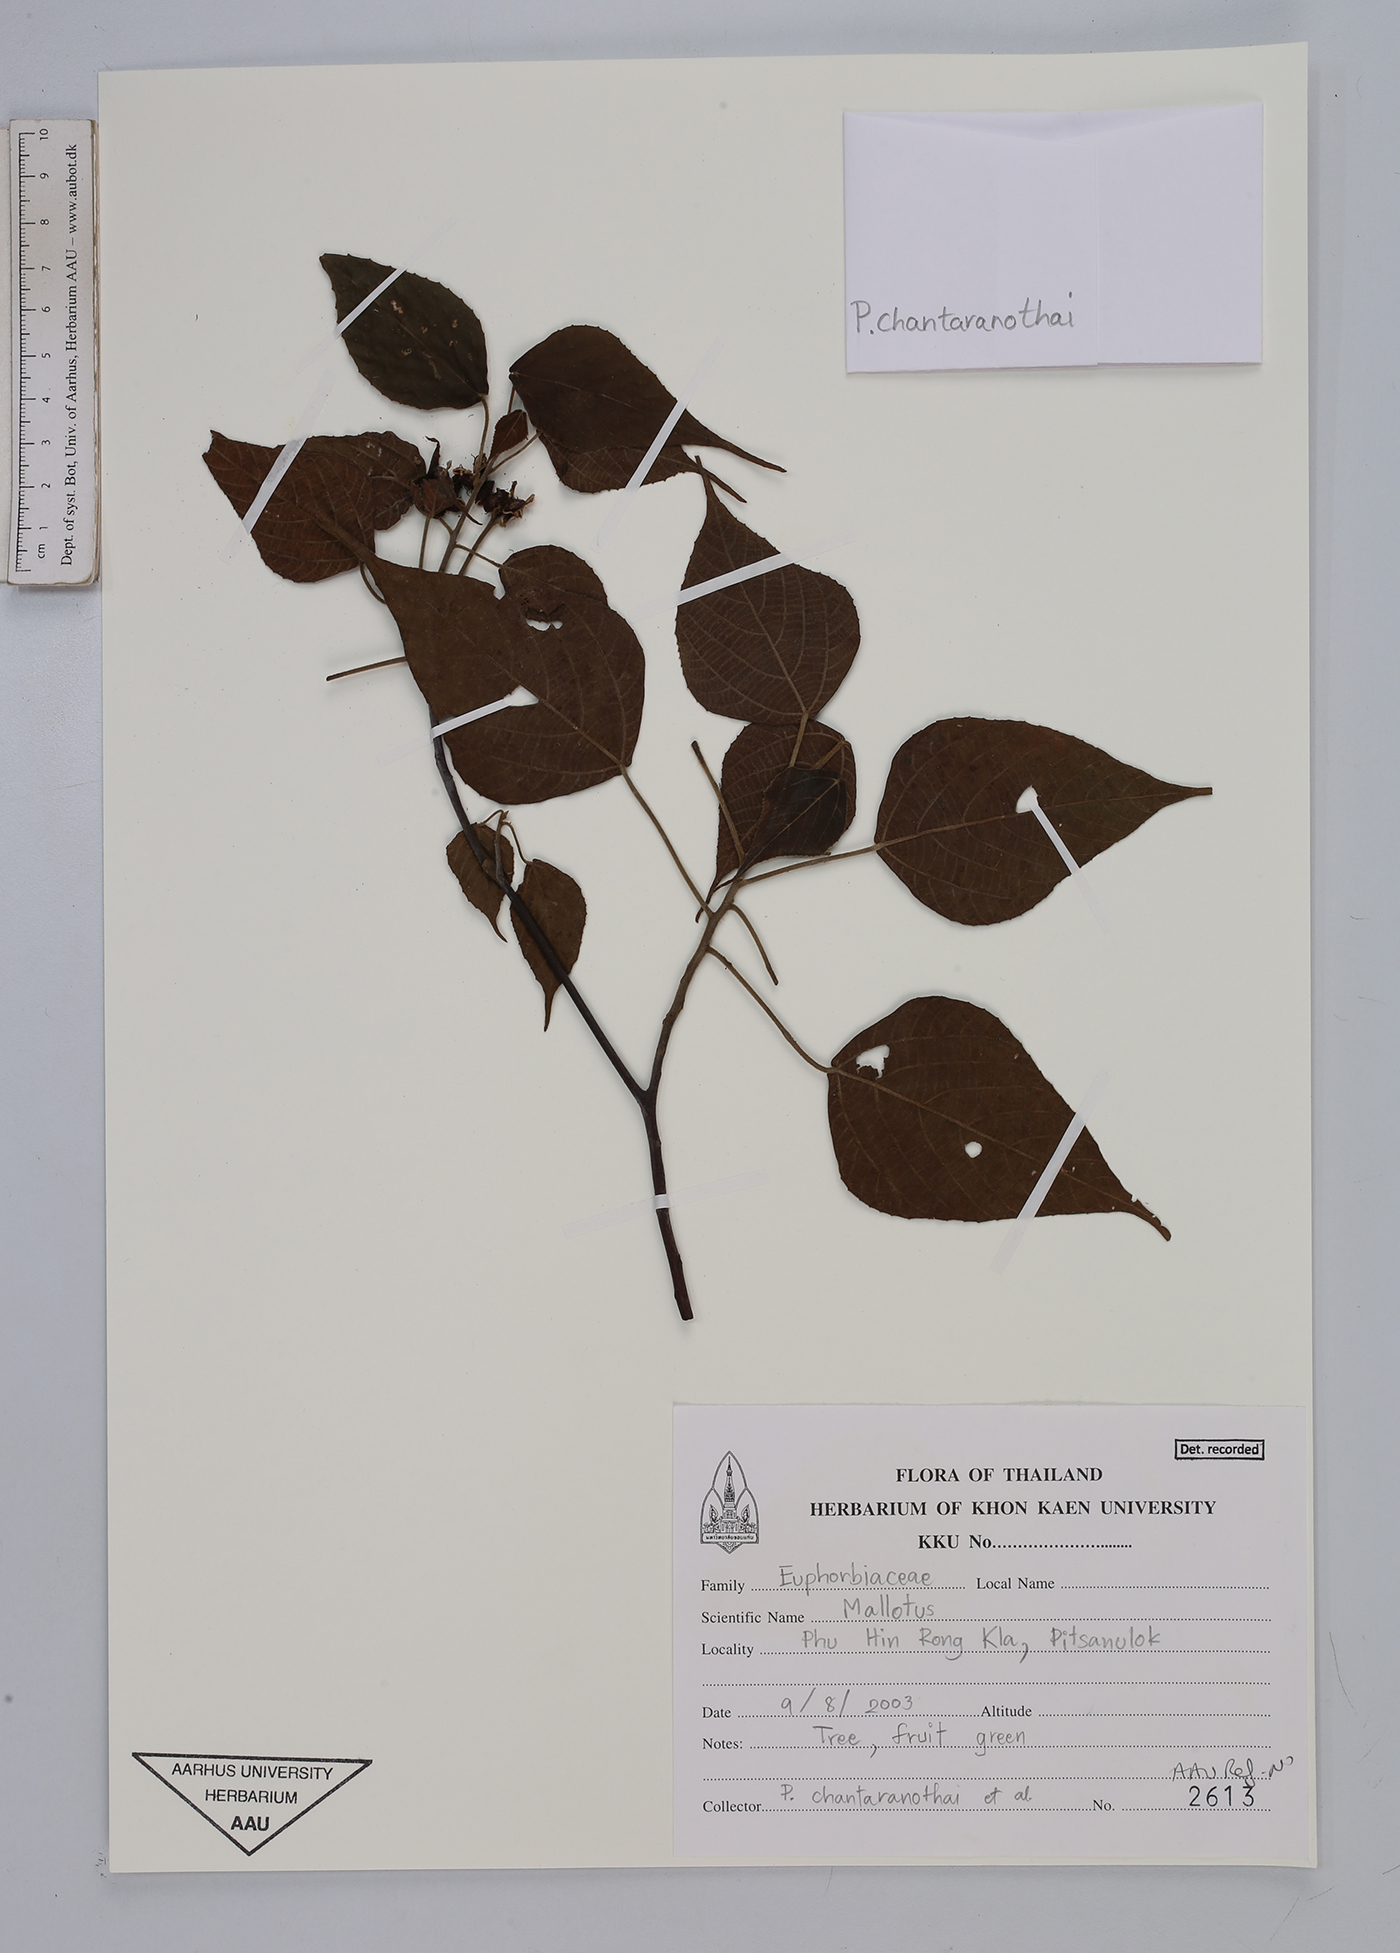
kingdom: Plantae
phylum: Tracheophyta
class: Magnoliopsida
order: Malpighiales
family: Euphorbiaceae
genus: Mallotus
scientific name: Mallotus
